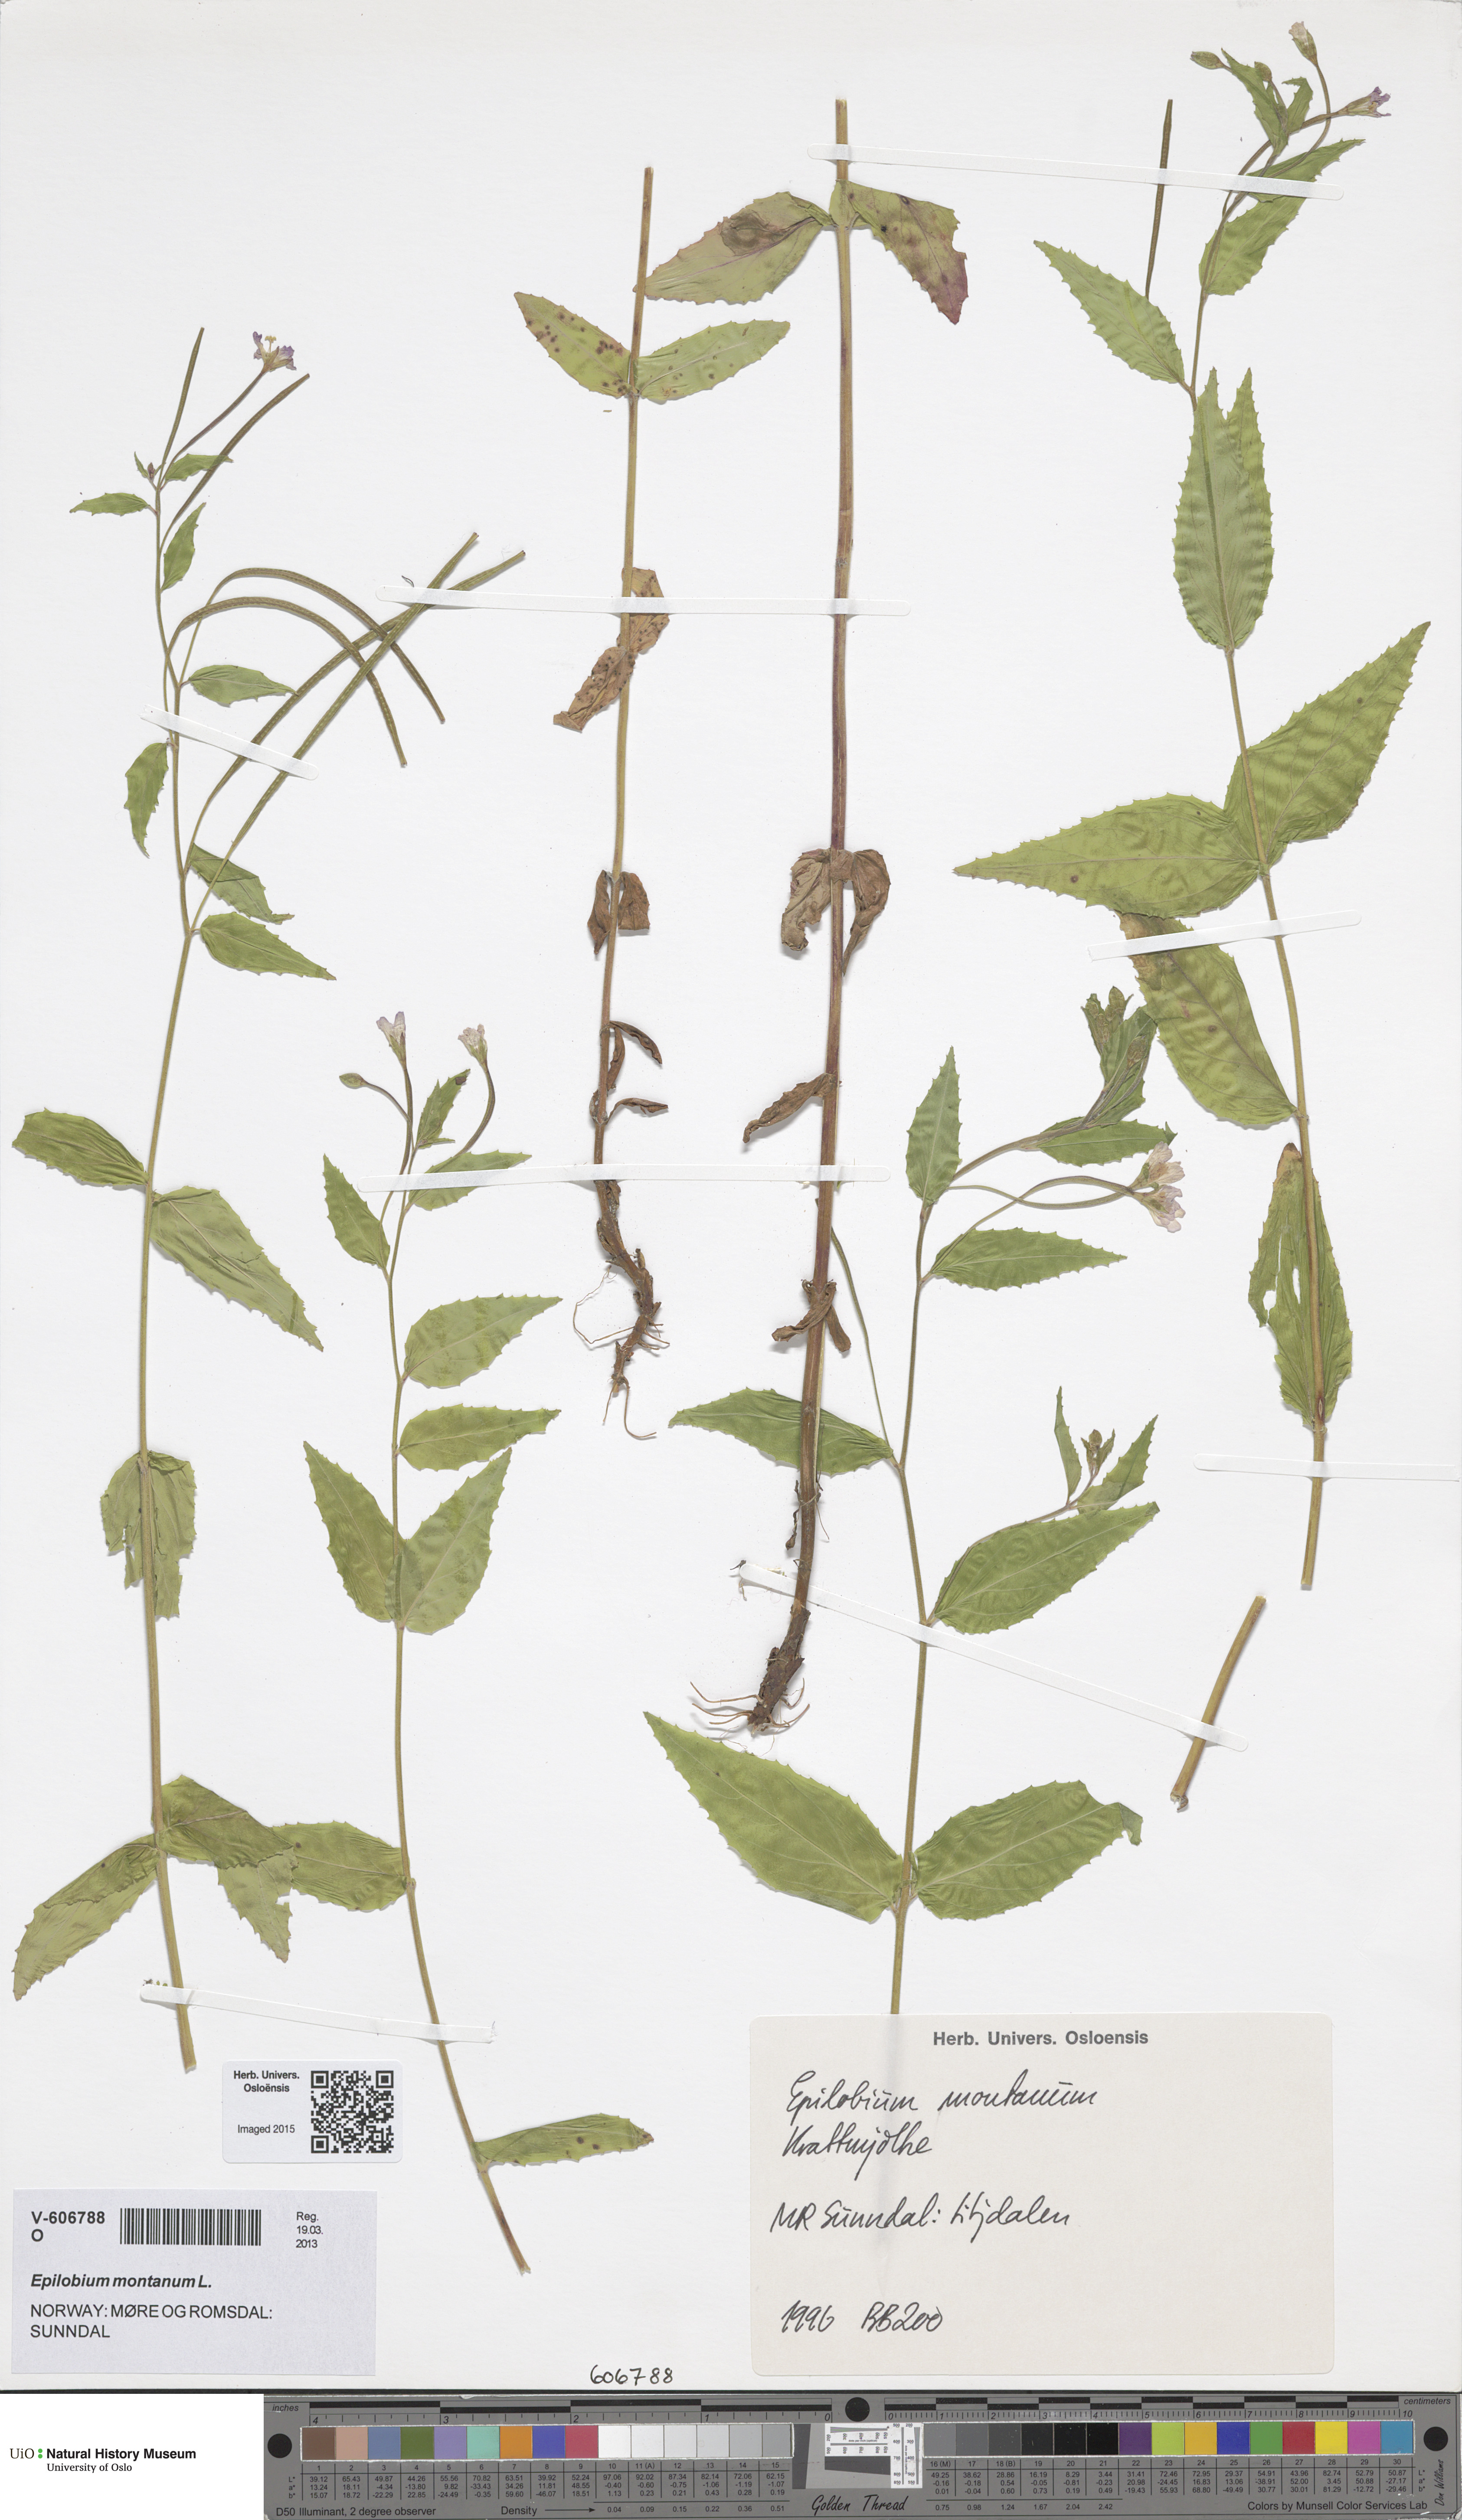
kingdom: Plantae
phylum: Tracheophyta
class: Magnoliopsida
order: Myrtales
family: Onagraceae
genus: Epilobium
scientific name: Epilobium montanum
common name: Broad-leaved willowherb
